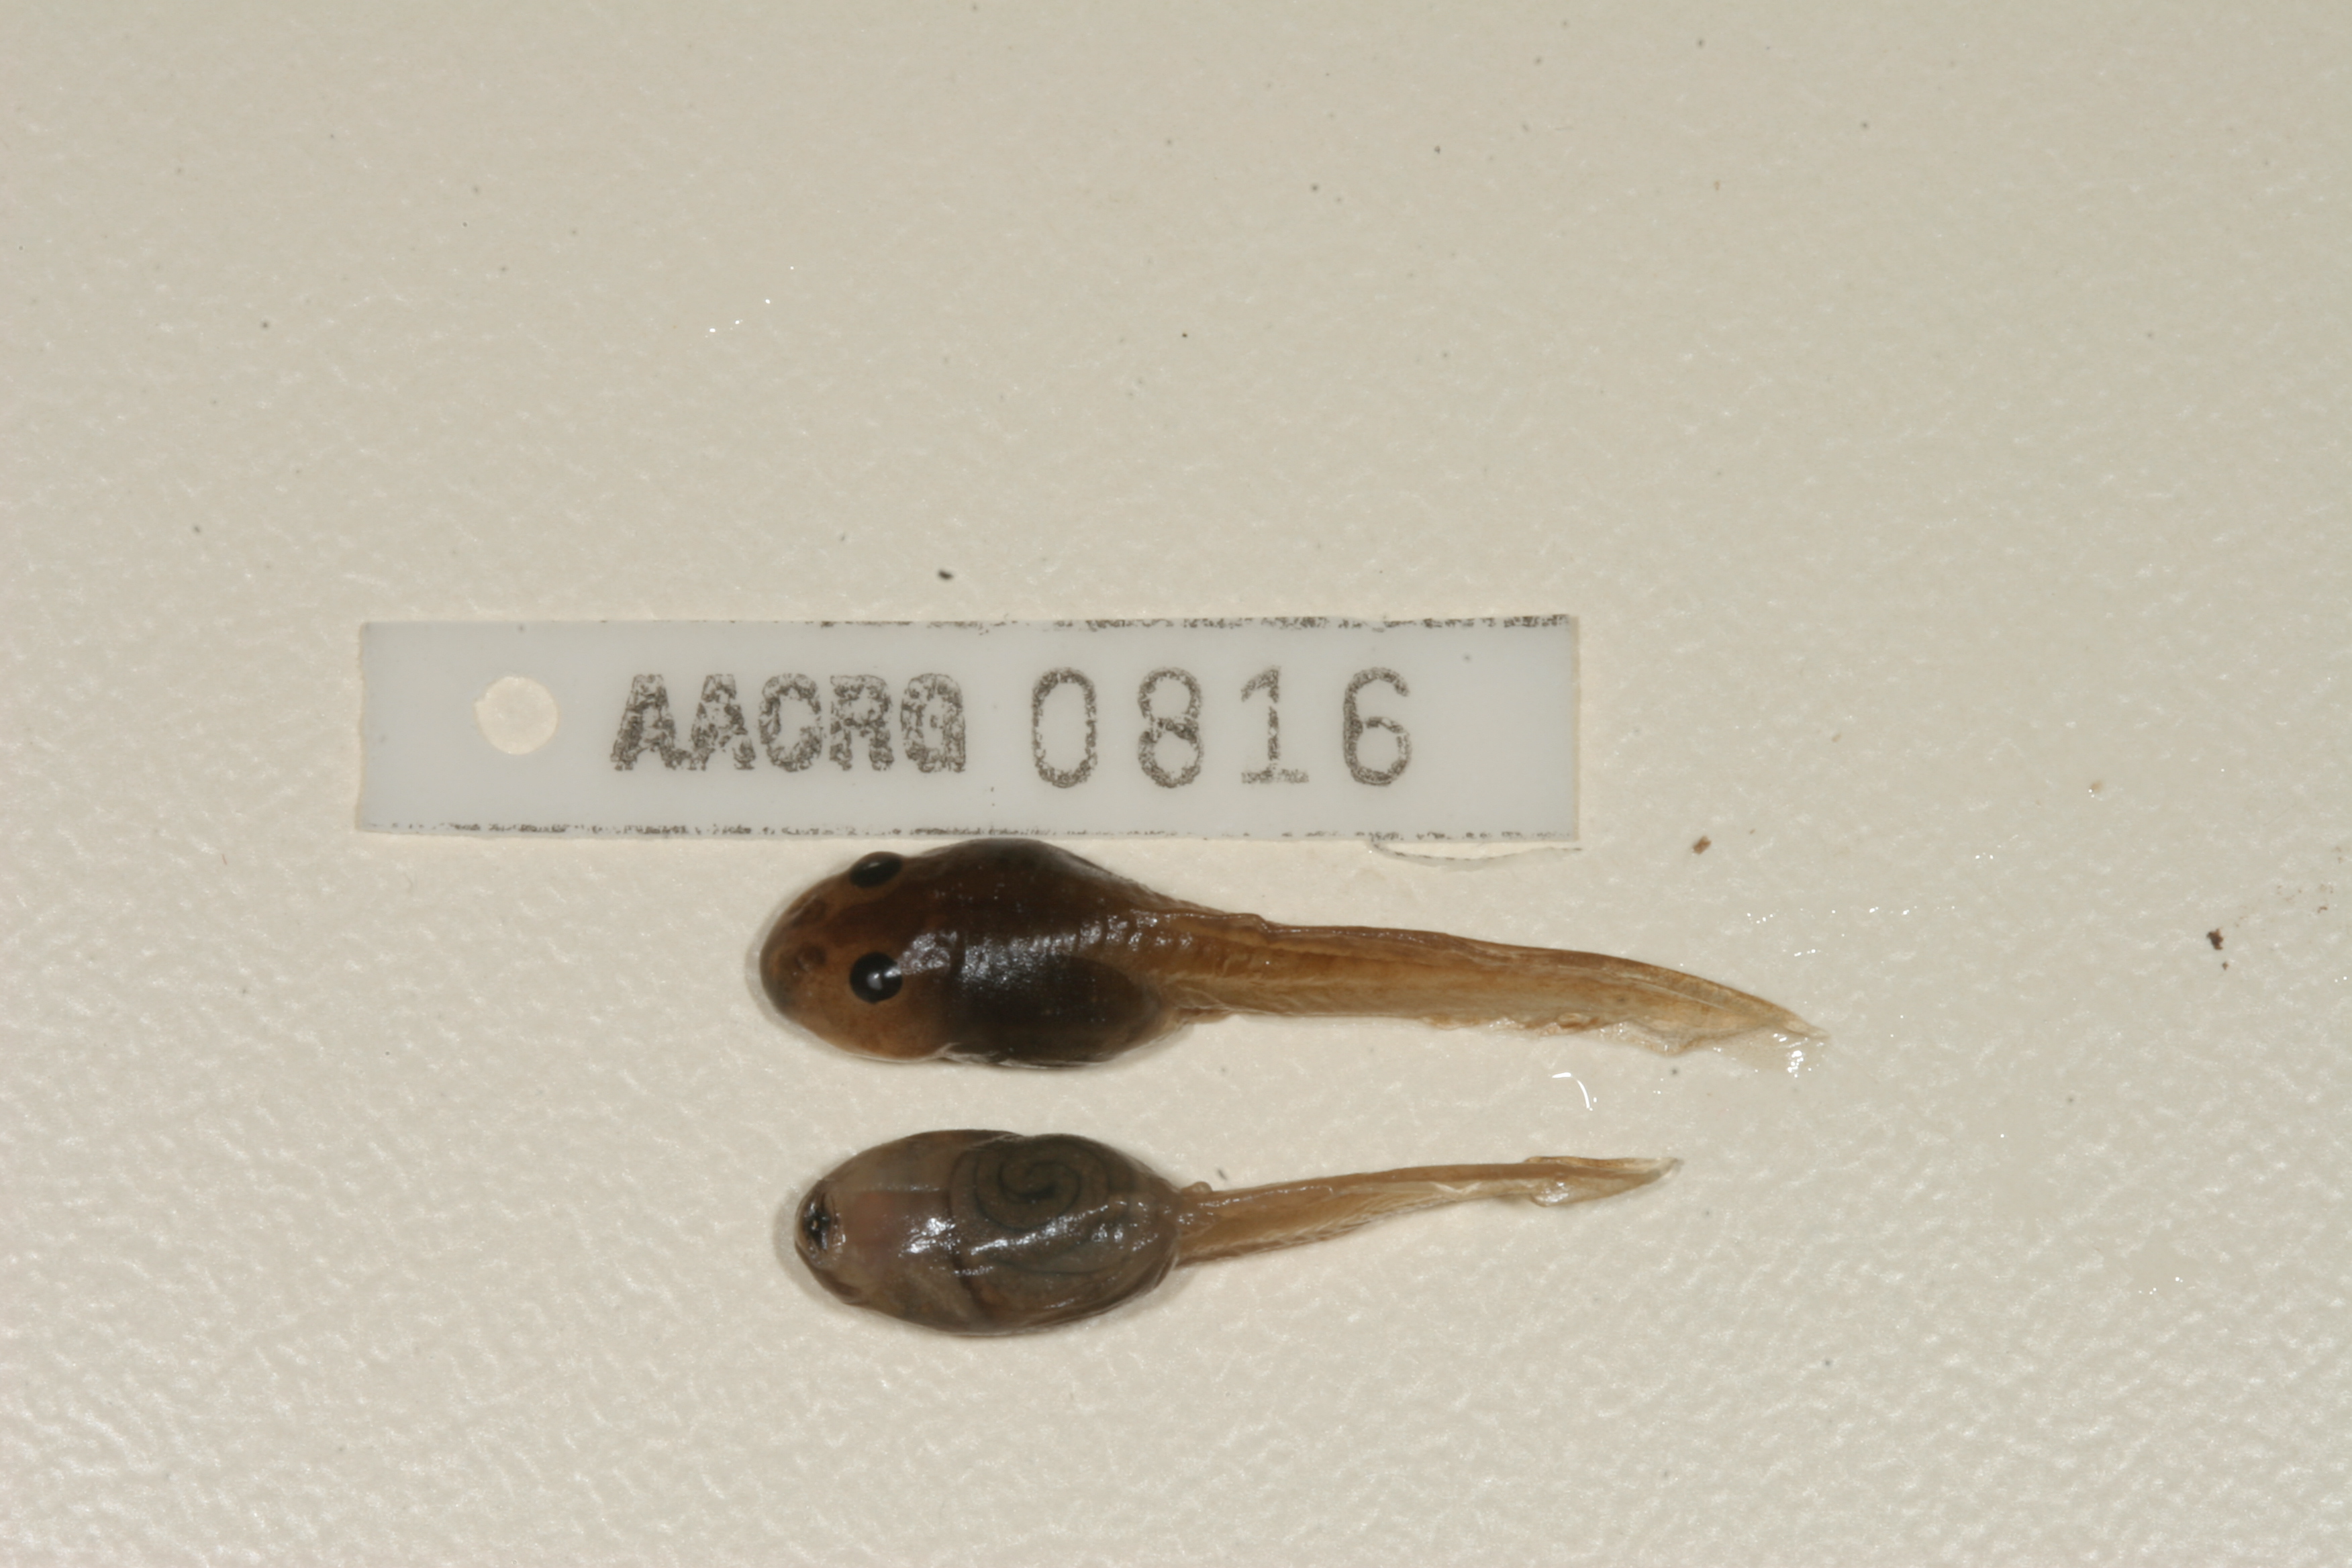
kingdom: Animalia
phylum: Chordata
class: Amphibia
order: Anura
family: Pyxicephalidae
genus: Strongylopus
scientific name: Strongylopus grayii
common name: Gray's stream frog
